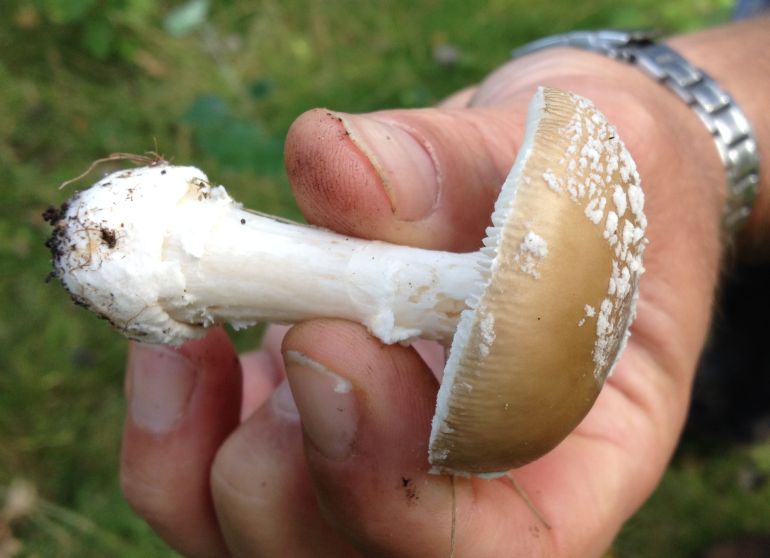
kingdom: Fungi
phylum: Basidiomycota
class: Agaricomycetes
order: Agaricales
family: Amanitaceae
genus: Amanita
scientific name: Amanita pantherina
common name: panter-fluesvamp
